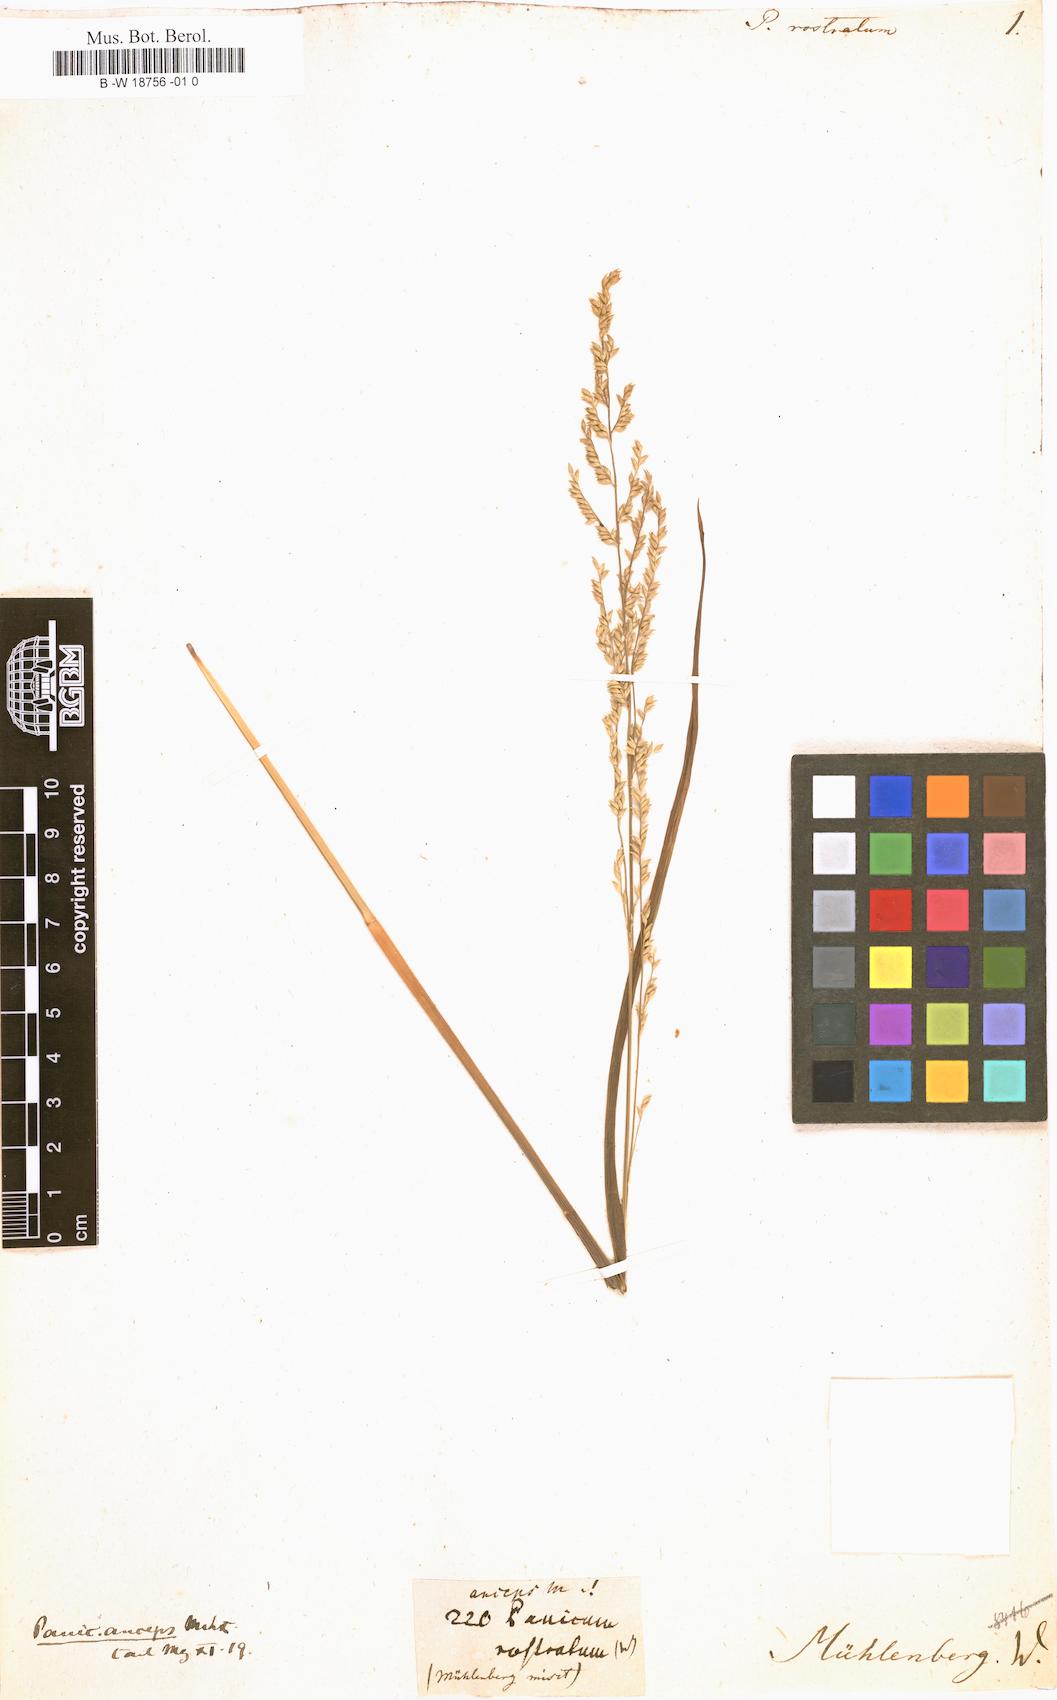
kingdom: Plantae
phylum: Tracheophyta
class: Liliopsida
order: Poales
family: Poaceae
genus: Coleataenia
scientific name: Coleataenia anceps
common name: Beaked panic grass
